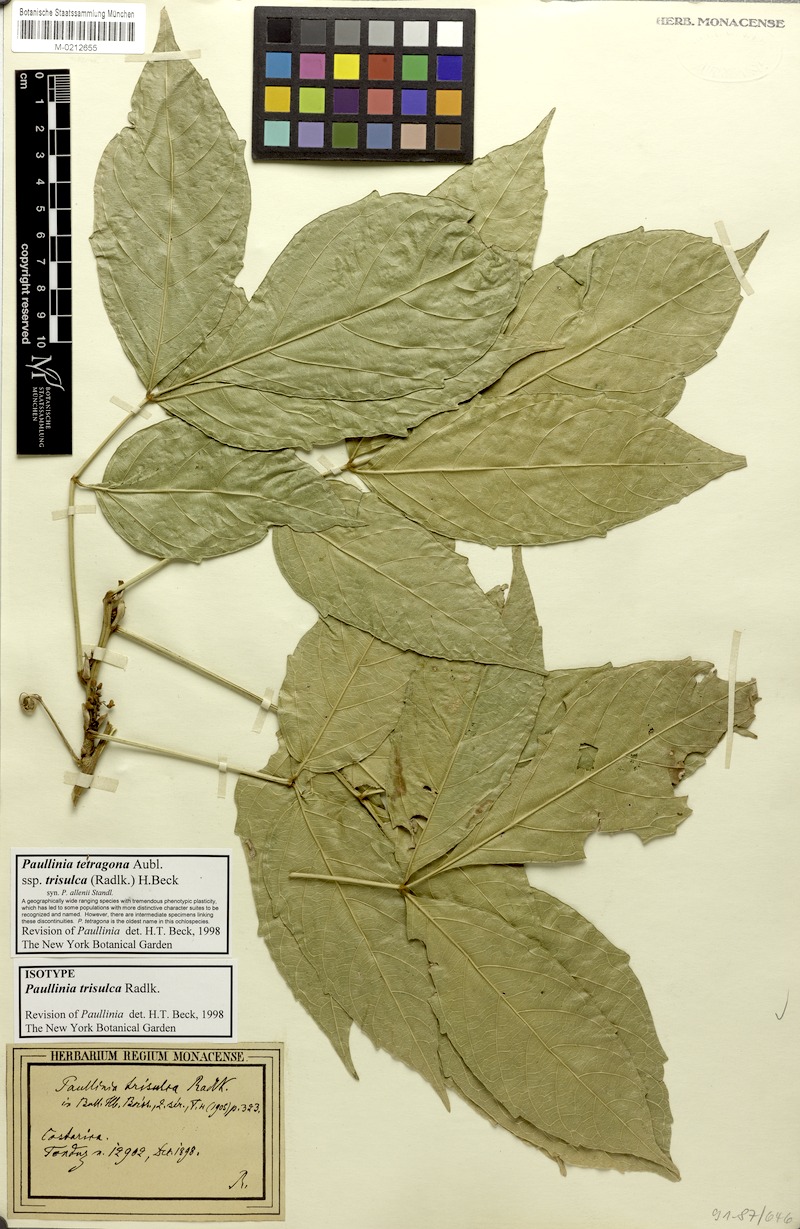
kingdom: Plantae
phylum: Tracheophyta
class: Magnoliopsida
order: Sapindales
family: Sapindaceae
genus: Paullinia
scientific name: Paullinia tetragona
